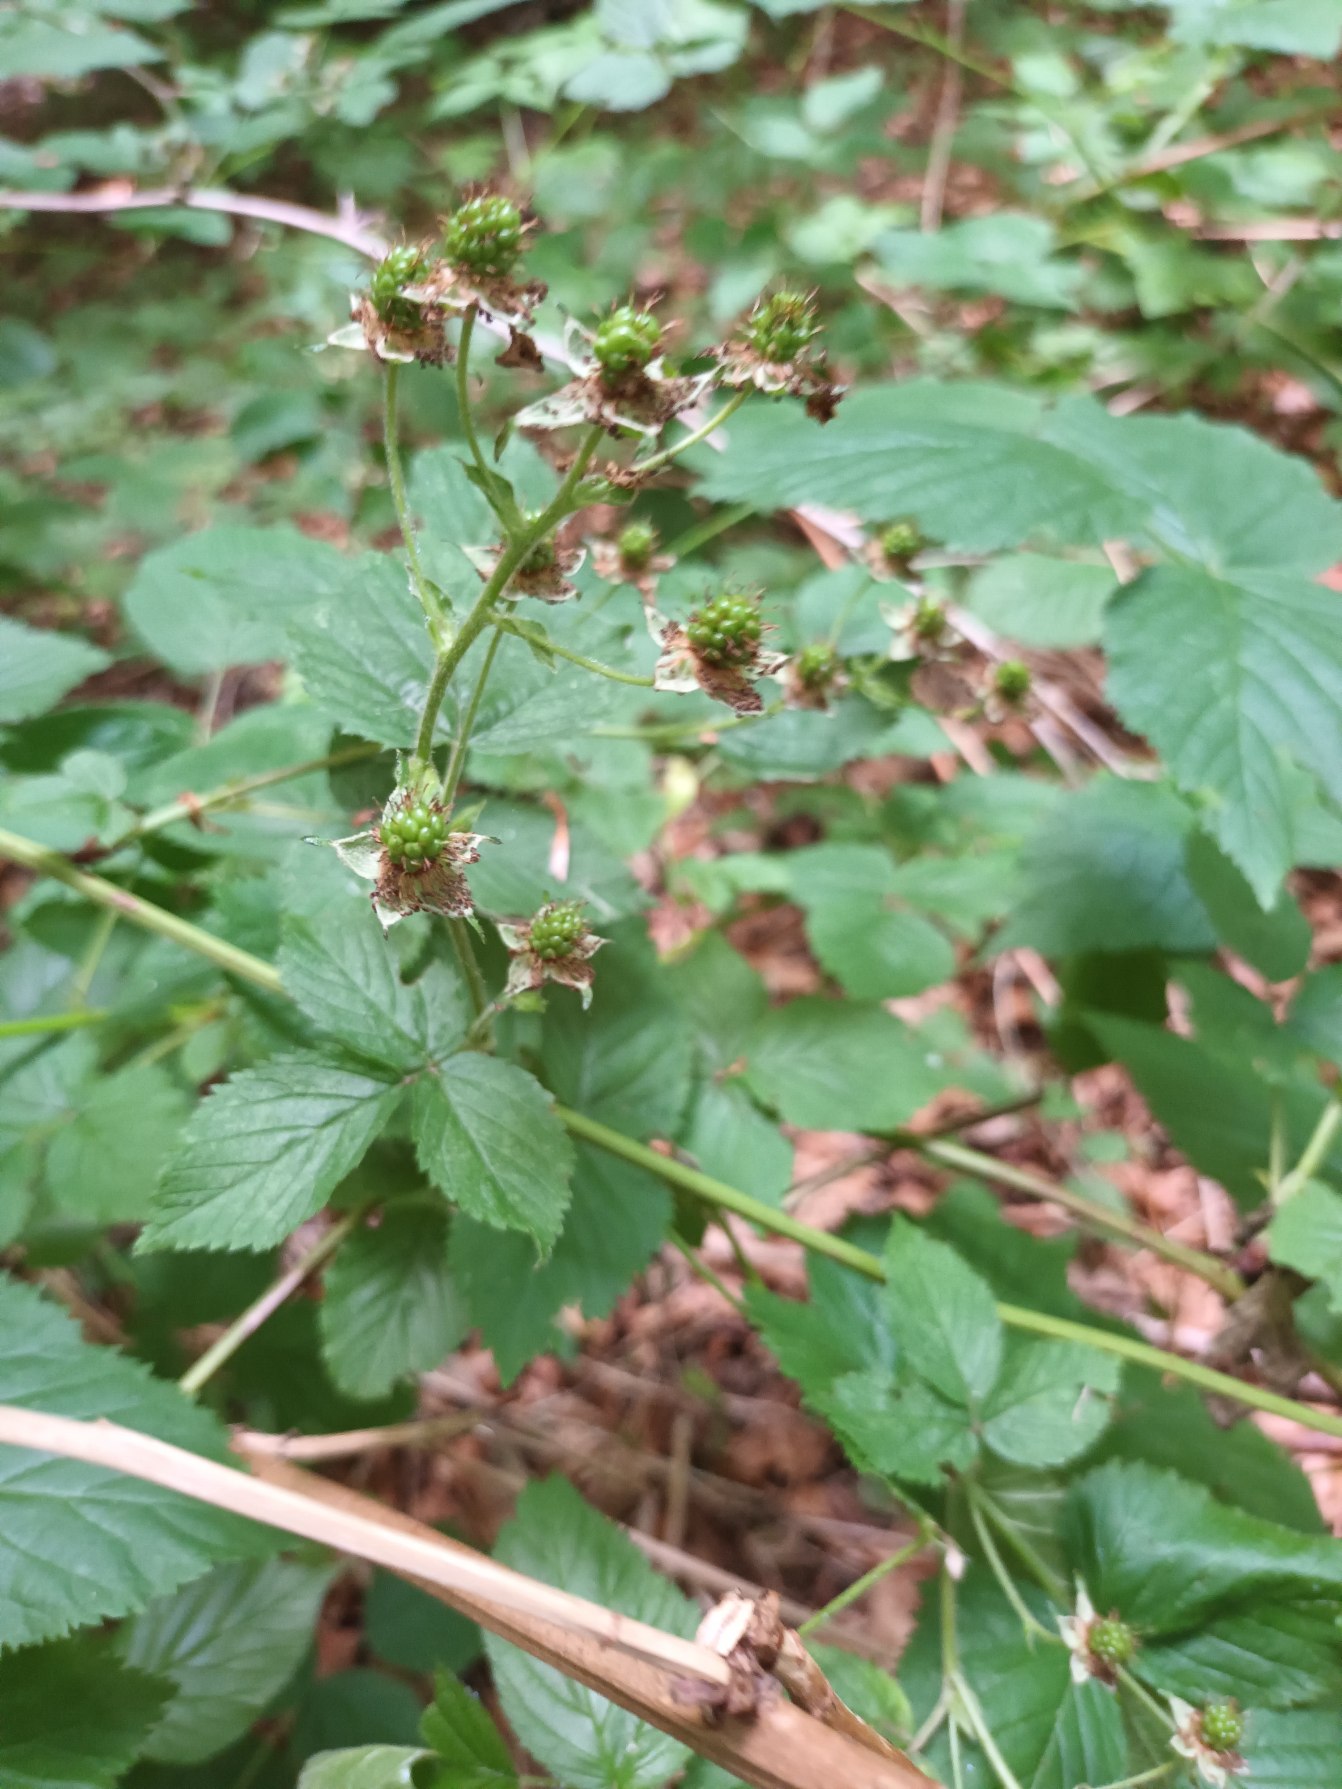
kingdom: Plantae
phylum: Tracheophyta
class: Magnoliopsida
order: Rosales
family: Rosaceae
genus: Rubus
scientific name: Rubus canadensis
